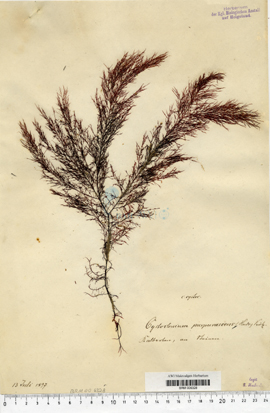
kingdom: Plantae
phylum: Rhodophyta
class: Florideophyceae
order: Gigartinales
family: Cystocloniaceae
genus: Cystoclonium
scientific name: Cystoclonium purpureum
